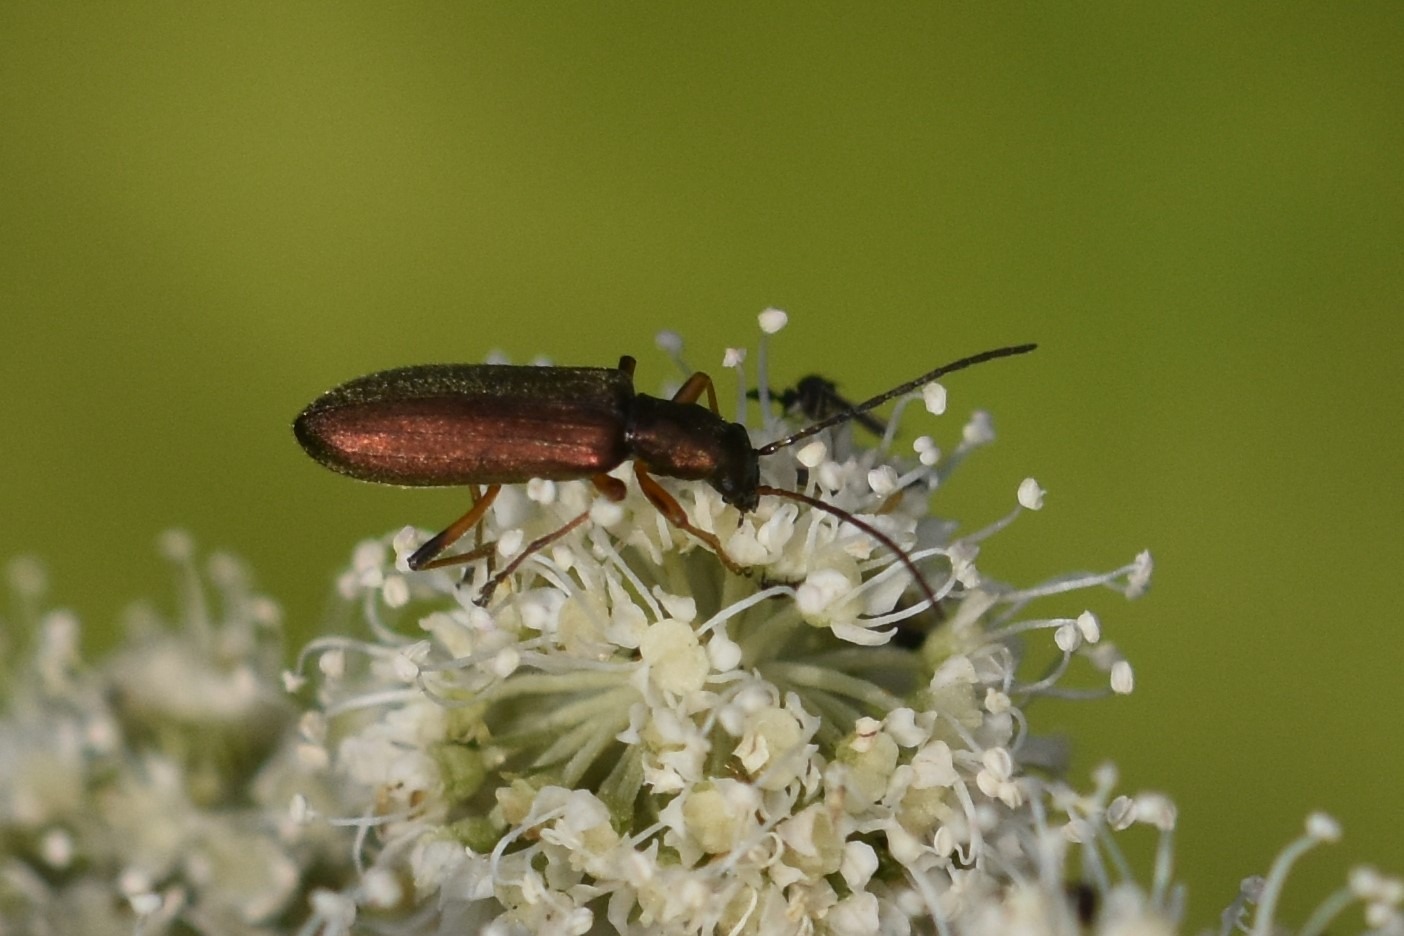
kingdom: Animalia
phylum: Arthropoda
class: Insecta
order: Coleoptera
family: Oedemeridae
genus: Chrysanthia
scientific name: Chrysanthia geniculata
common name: Grøn solbille
